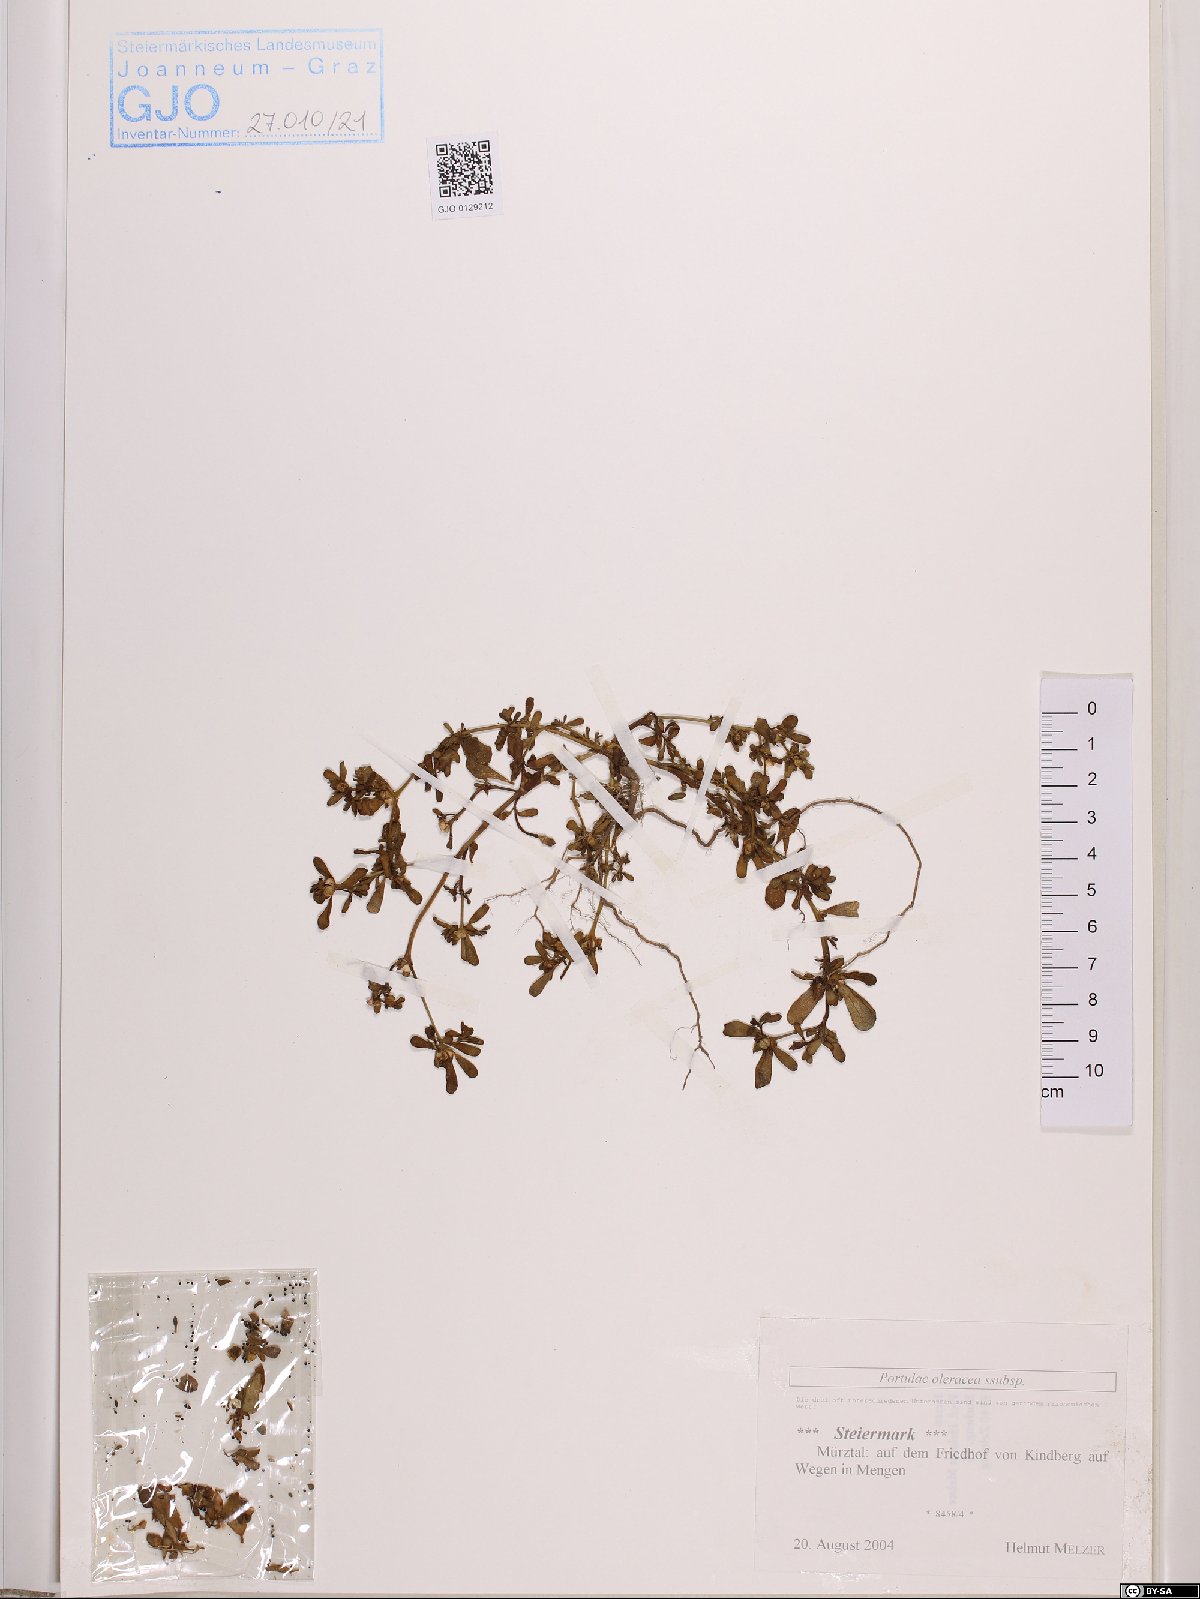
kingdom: Plantae
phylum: Tracheophyta
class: Magnoliopsida
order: Caryophyllales
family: Portulacaceae
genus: Portulaca
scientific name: Portulaca oleracea
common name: Common purslane
